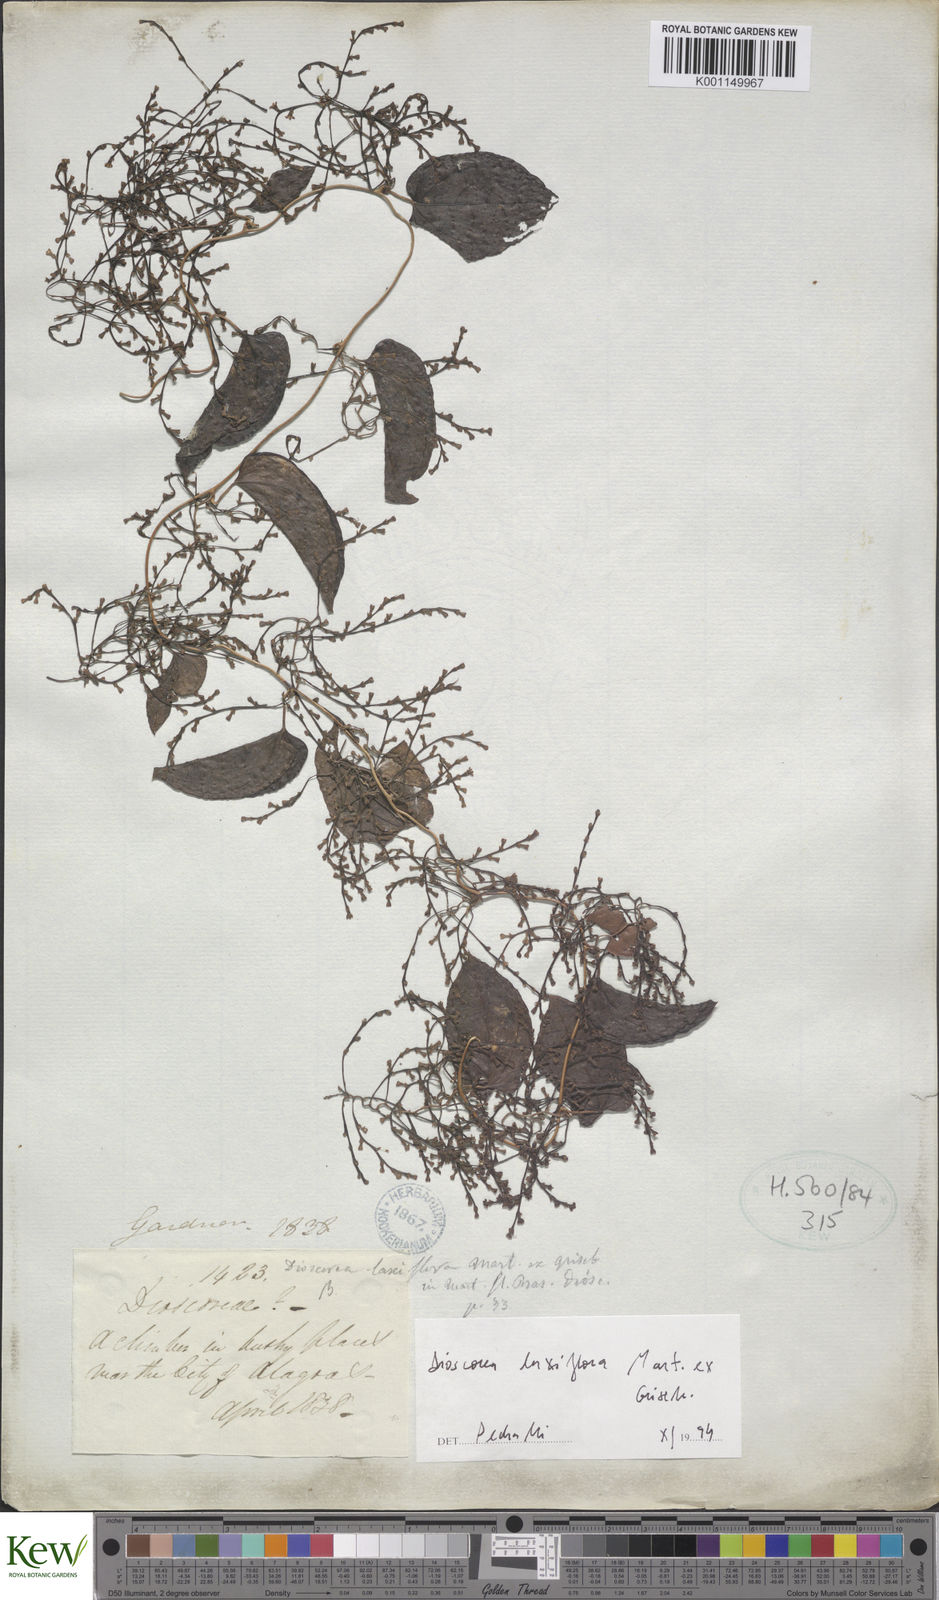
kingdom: Plantae
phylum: Tracheophyta
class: Liliopsida
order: Dioscoreales
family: Dioscoreaceae
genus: Dioscorea
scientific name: Dioscorea laxiflora
